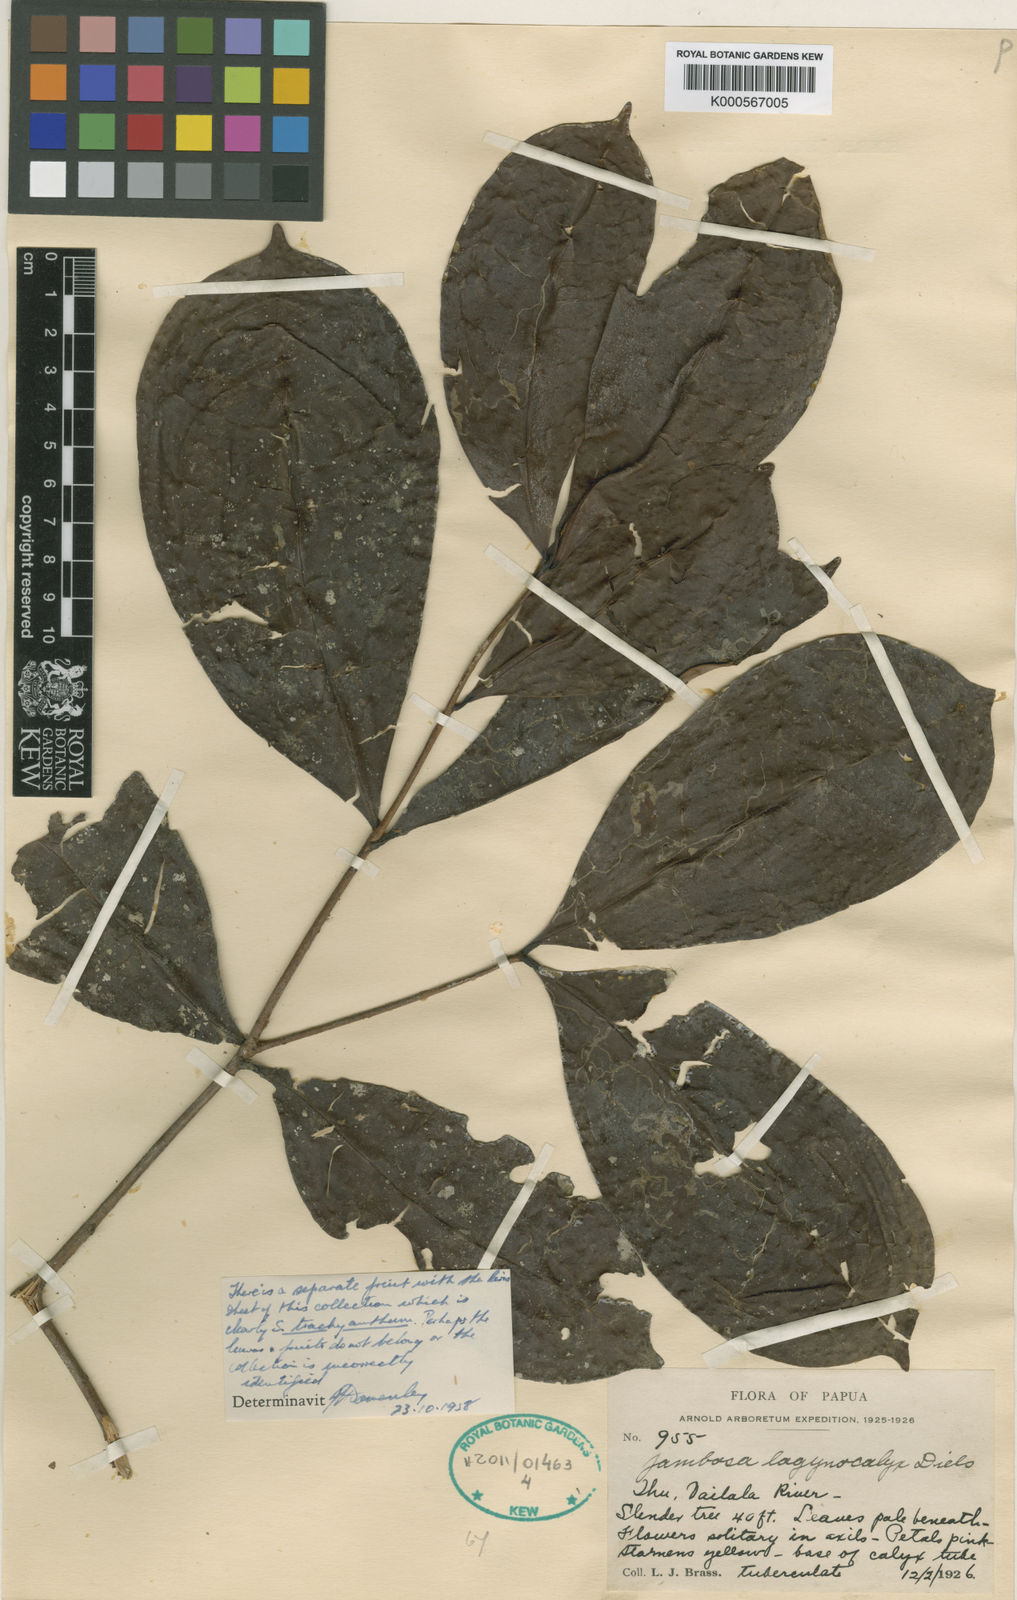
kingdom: Plantae
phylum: Tracheophyta
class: Magnoliopsida
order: Myrtales
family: Myrtaceae
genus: Syzygium
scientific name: Syzygium trachyanthum
